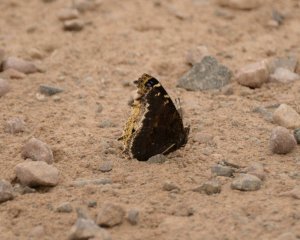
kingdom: Animalia
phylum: Arthropoda
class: Insecta
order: Lepidoptera
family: Nymphalidae
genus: Nymphalis
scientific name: Nymphalis antiopa
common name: Mourning Cloak
